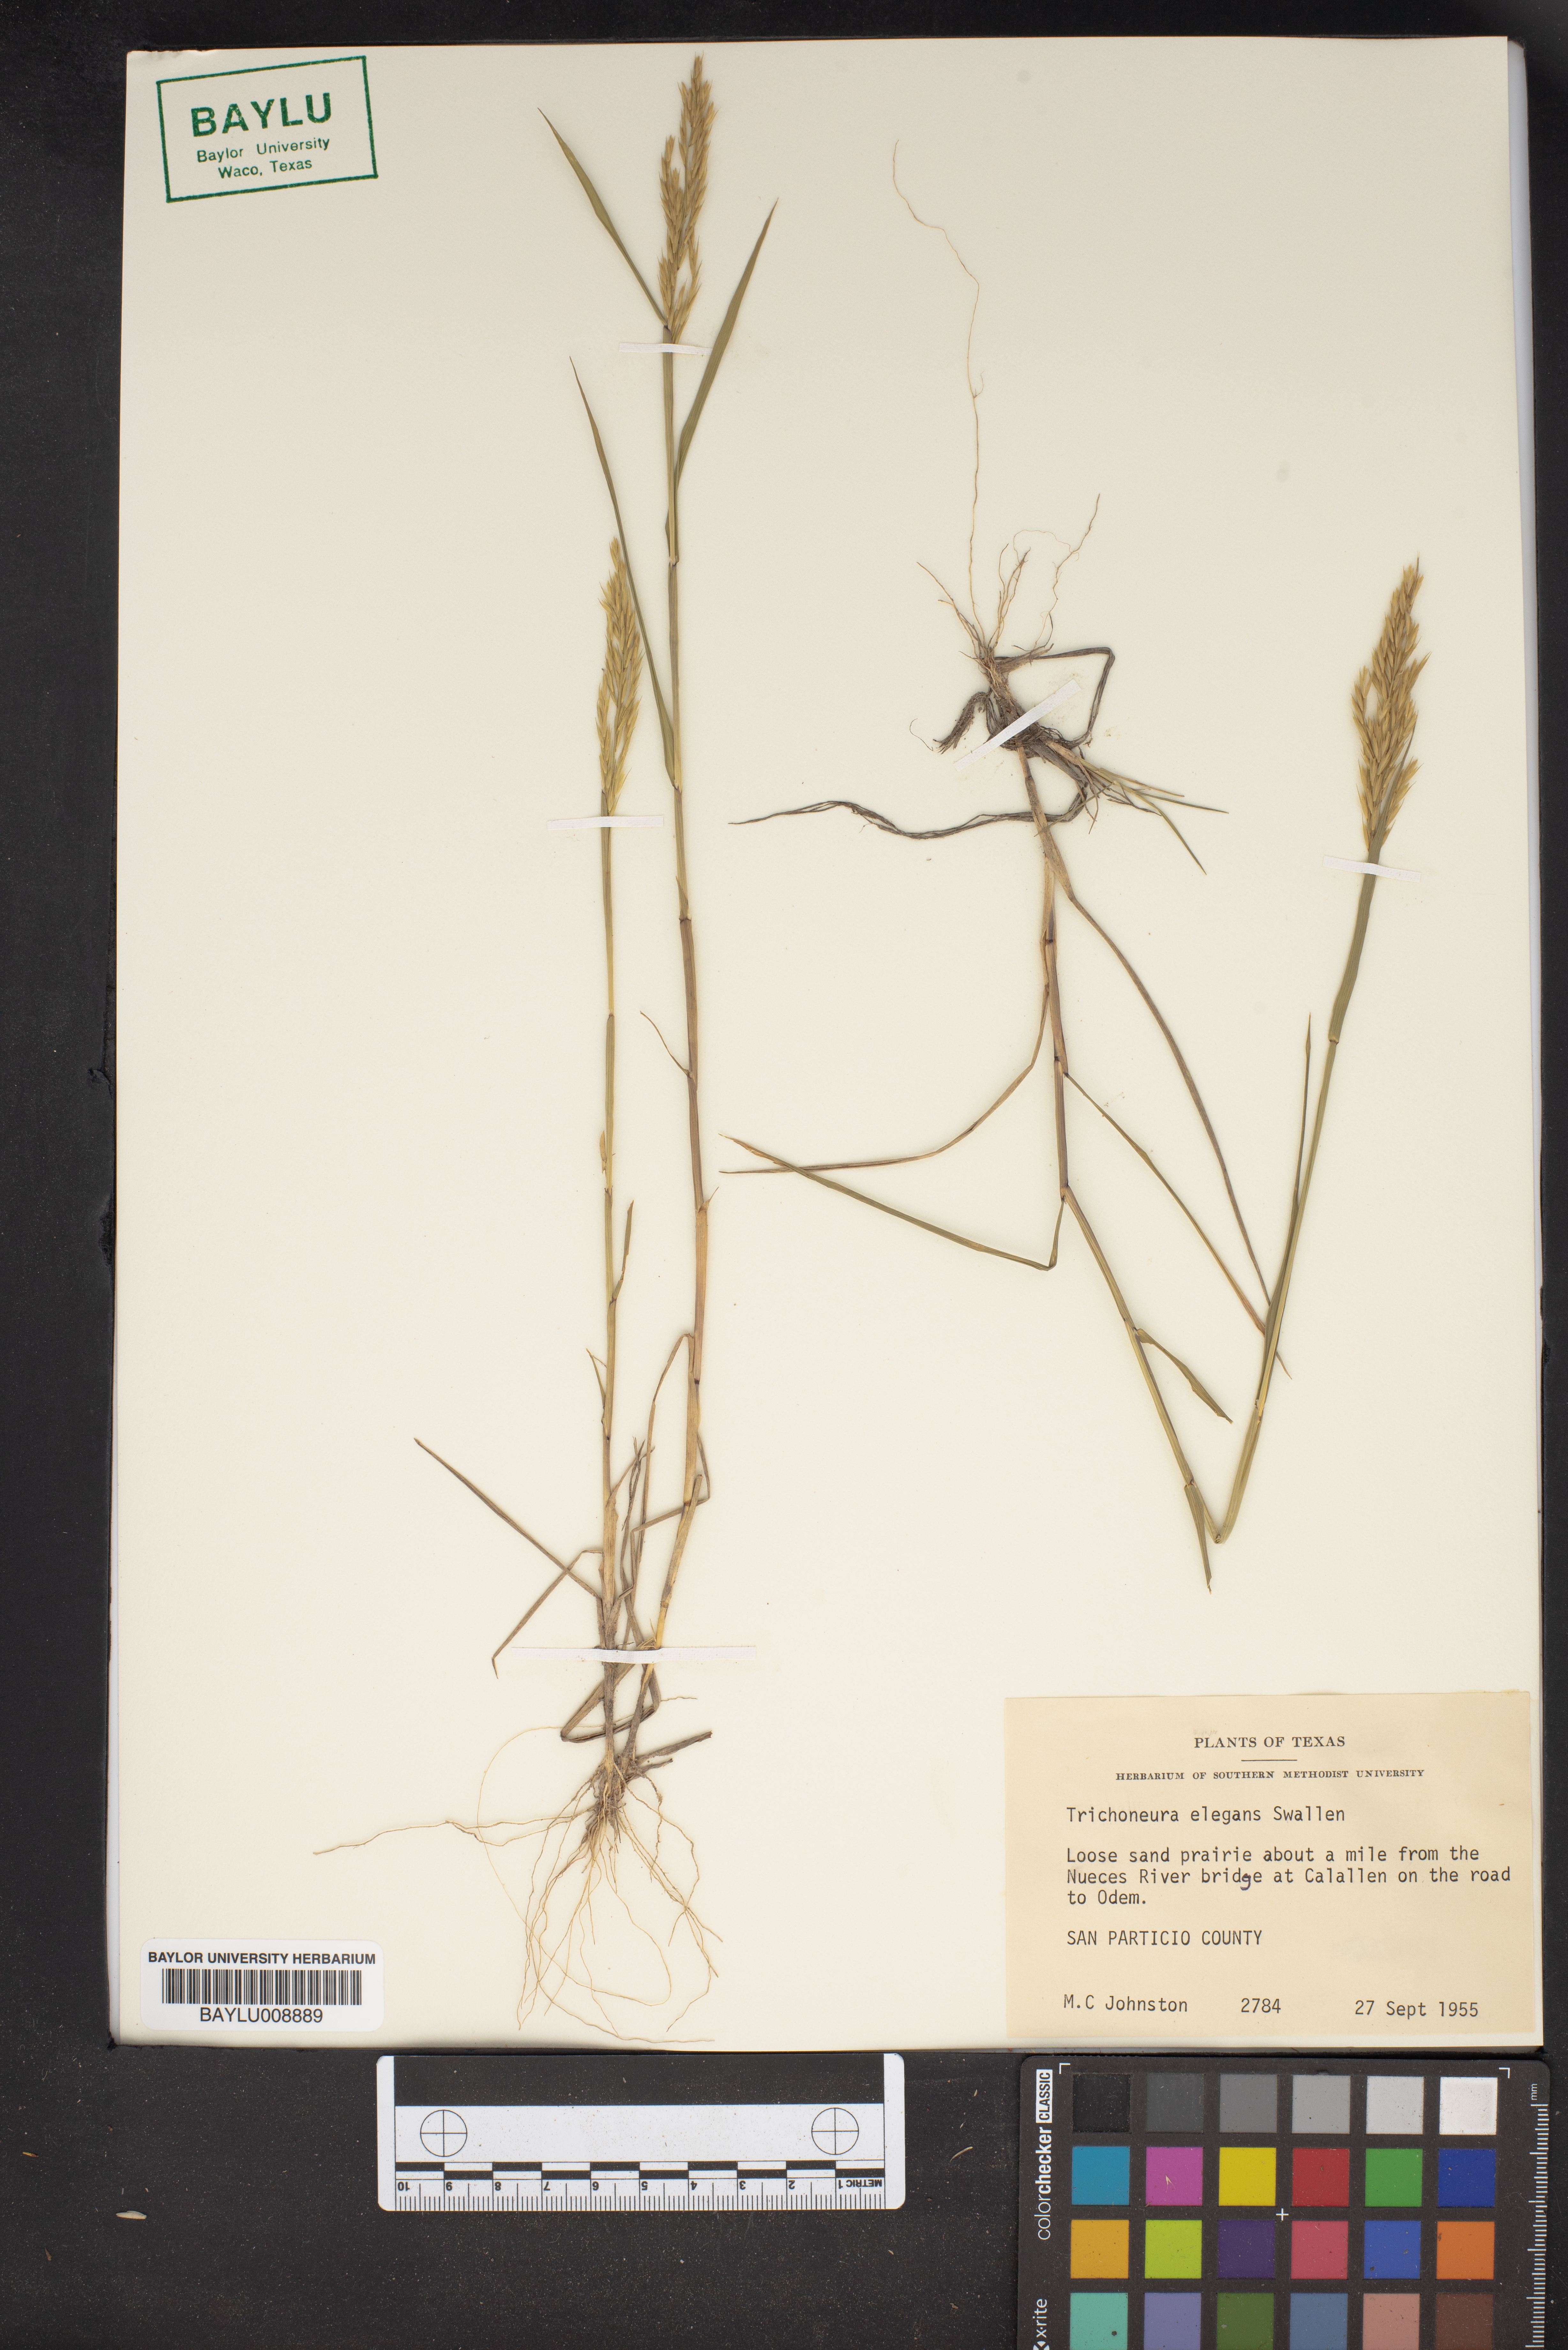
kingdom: Plantae
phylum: Tracheophyta
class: Liliopsida
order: Poales
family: Poaceae
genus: Trichoneura
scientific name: Trichoneura elegans
